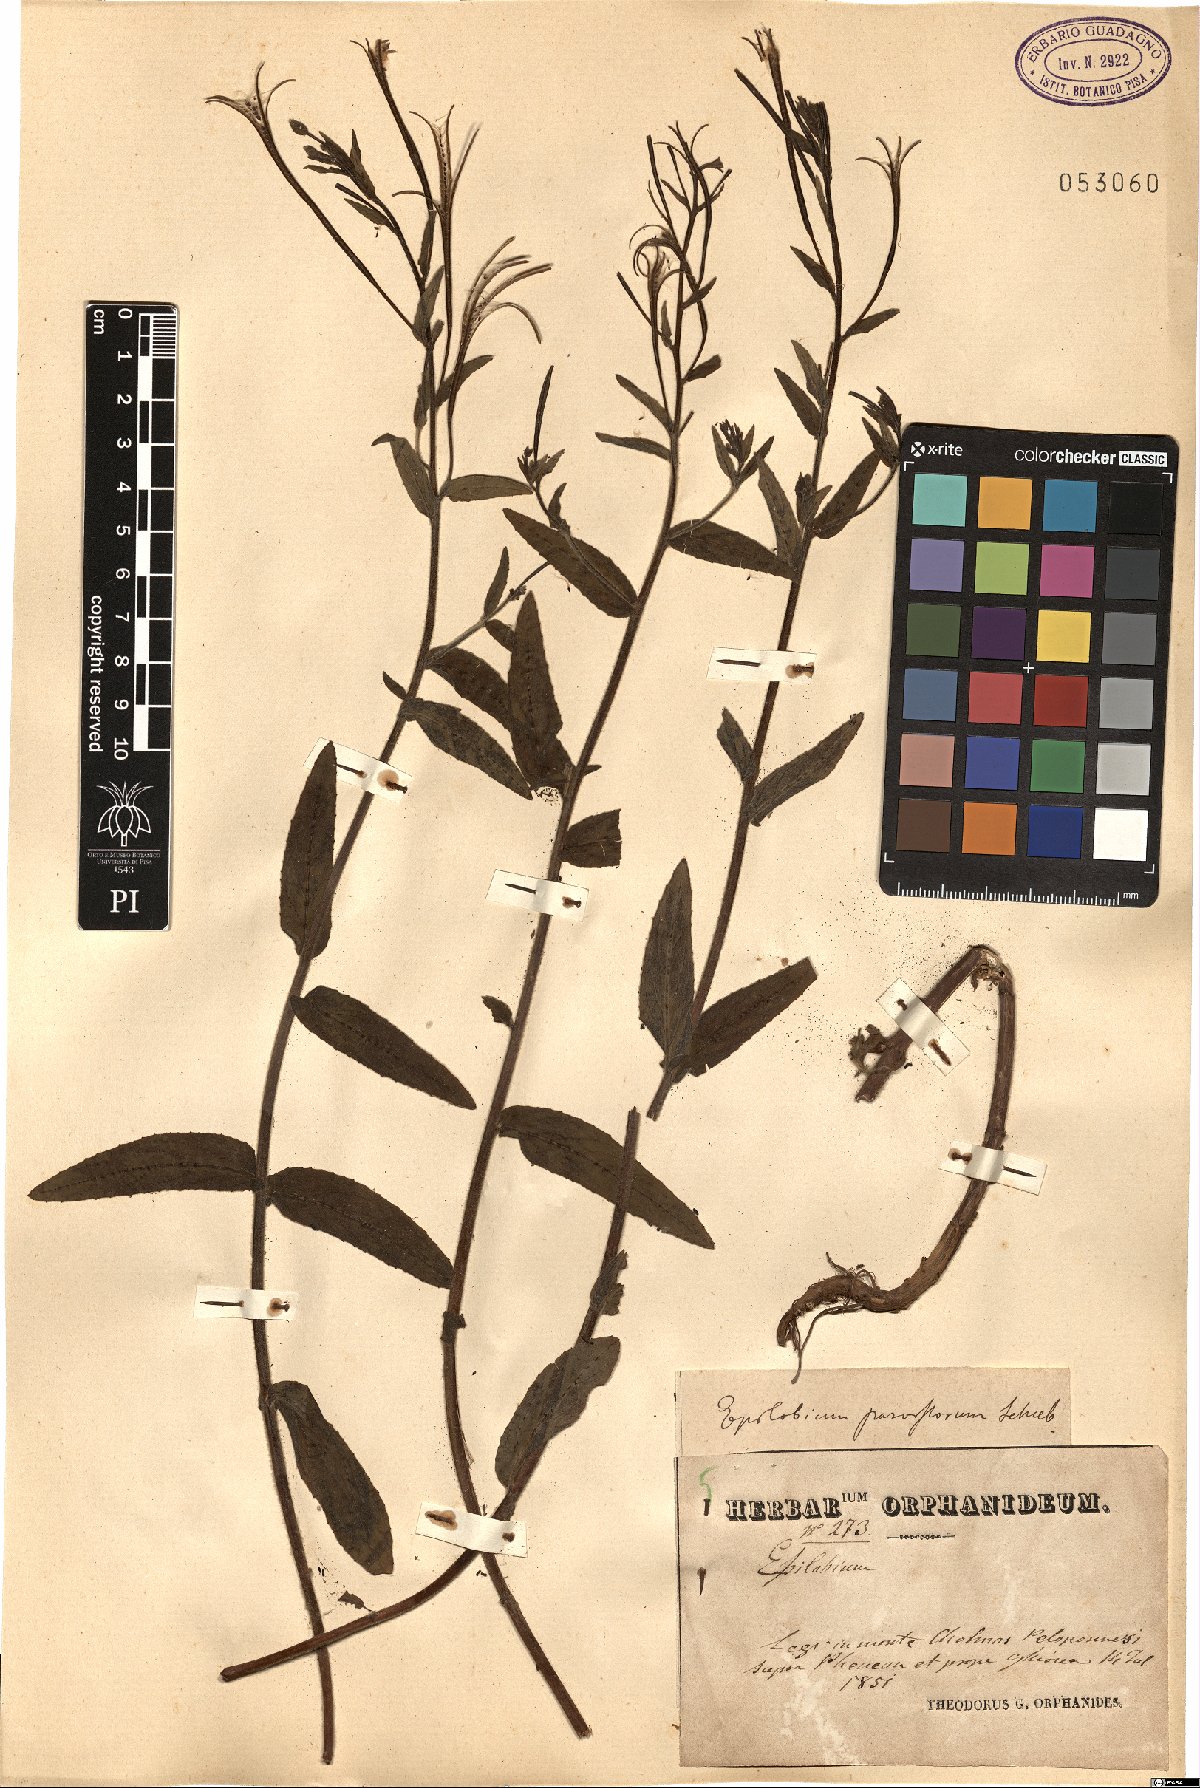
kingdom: Plantae
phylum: Tracheophyta
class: Magnoliopsida
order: Myrtales
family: Onagraceae
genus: Epilobium
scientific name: Epilobium parviflorum
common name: Hoary willowherb
